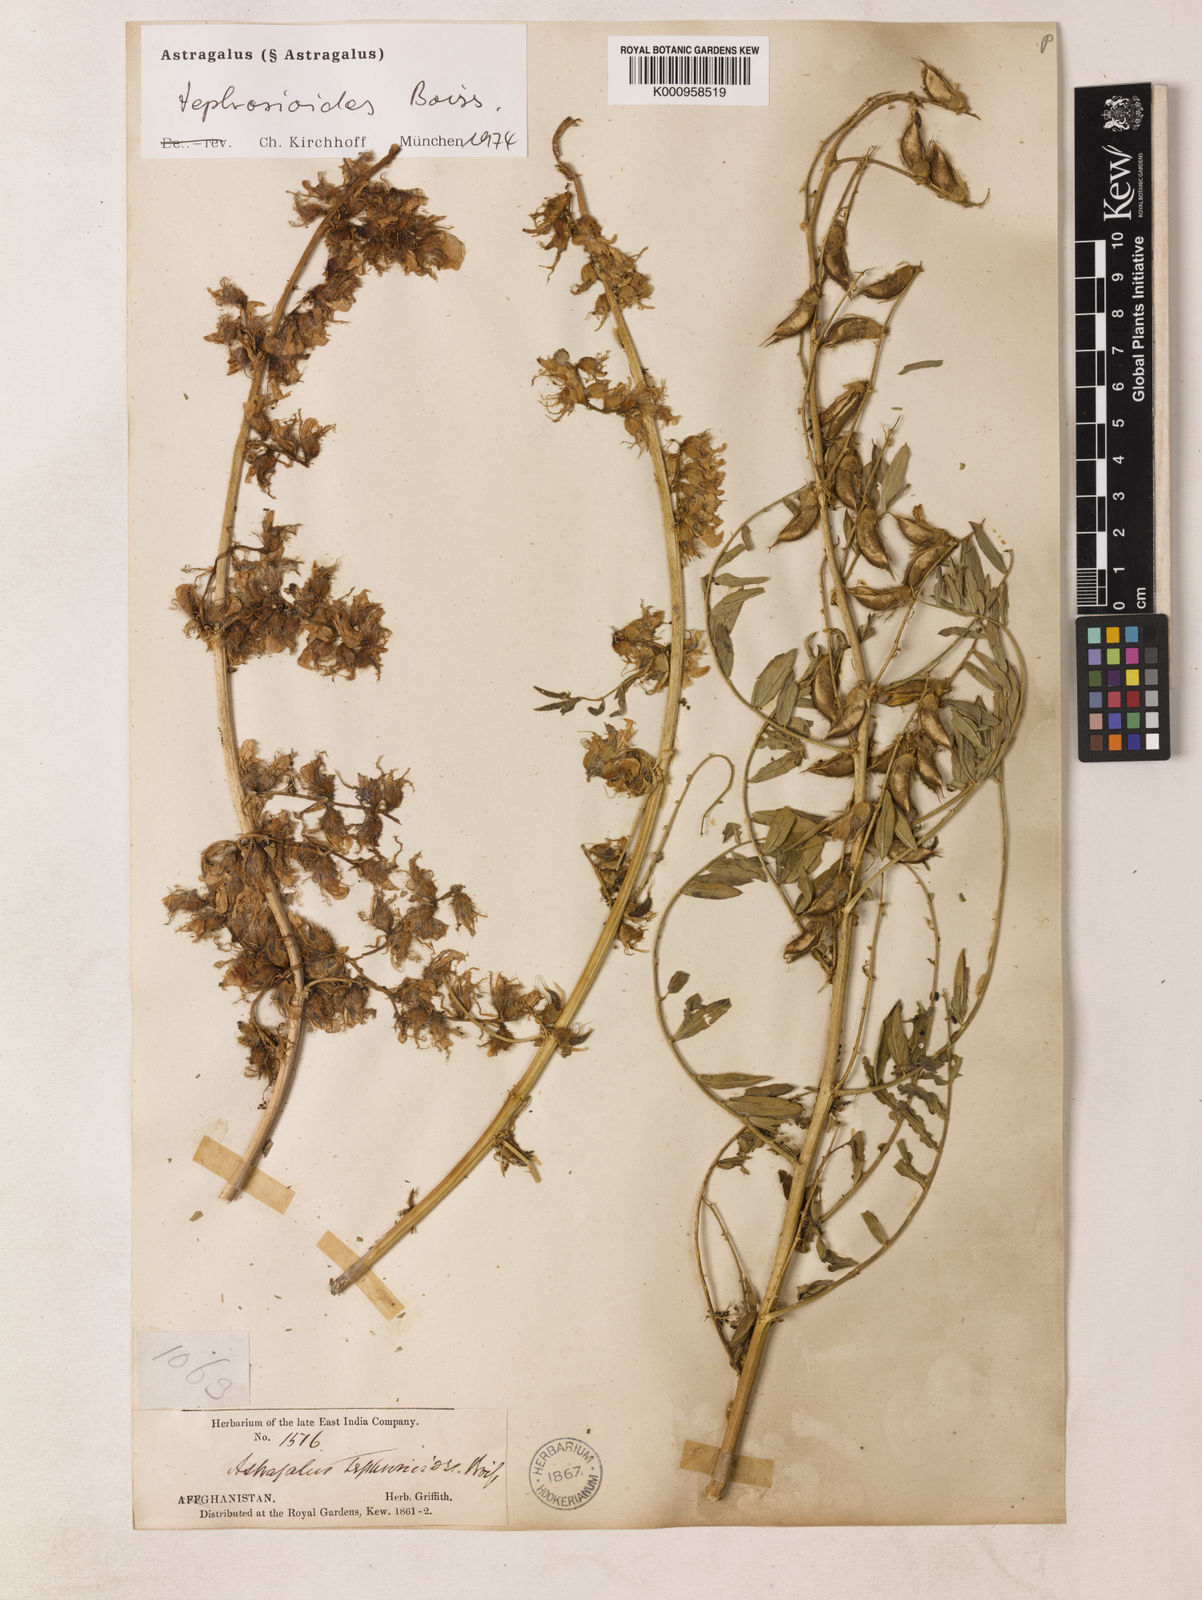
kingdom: Plantae
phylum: Tracheophyta
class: Magnoliopsida
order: Fabales
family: Fabaceae
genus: Astragalus
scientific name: Astragalus
